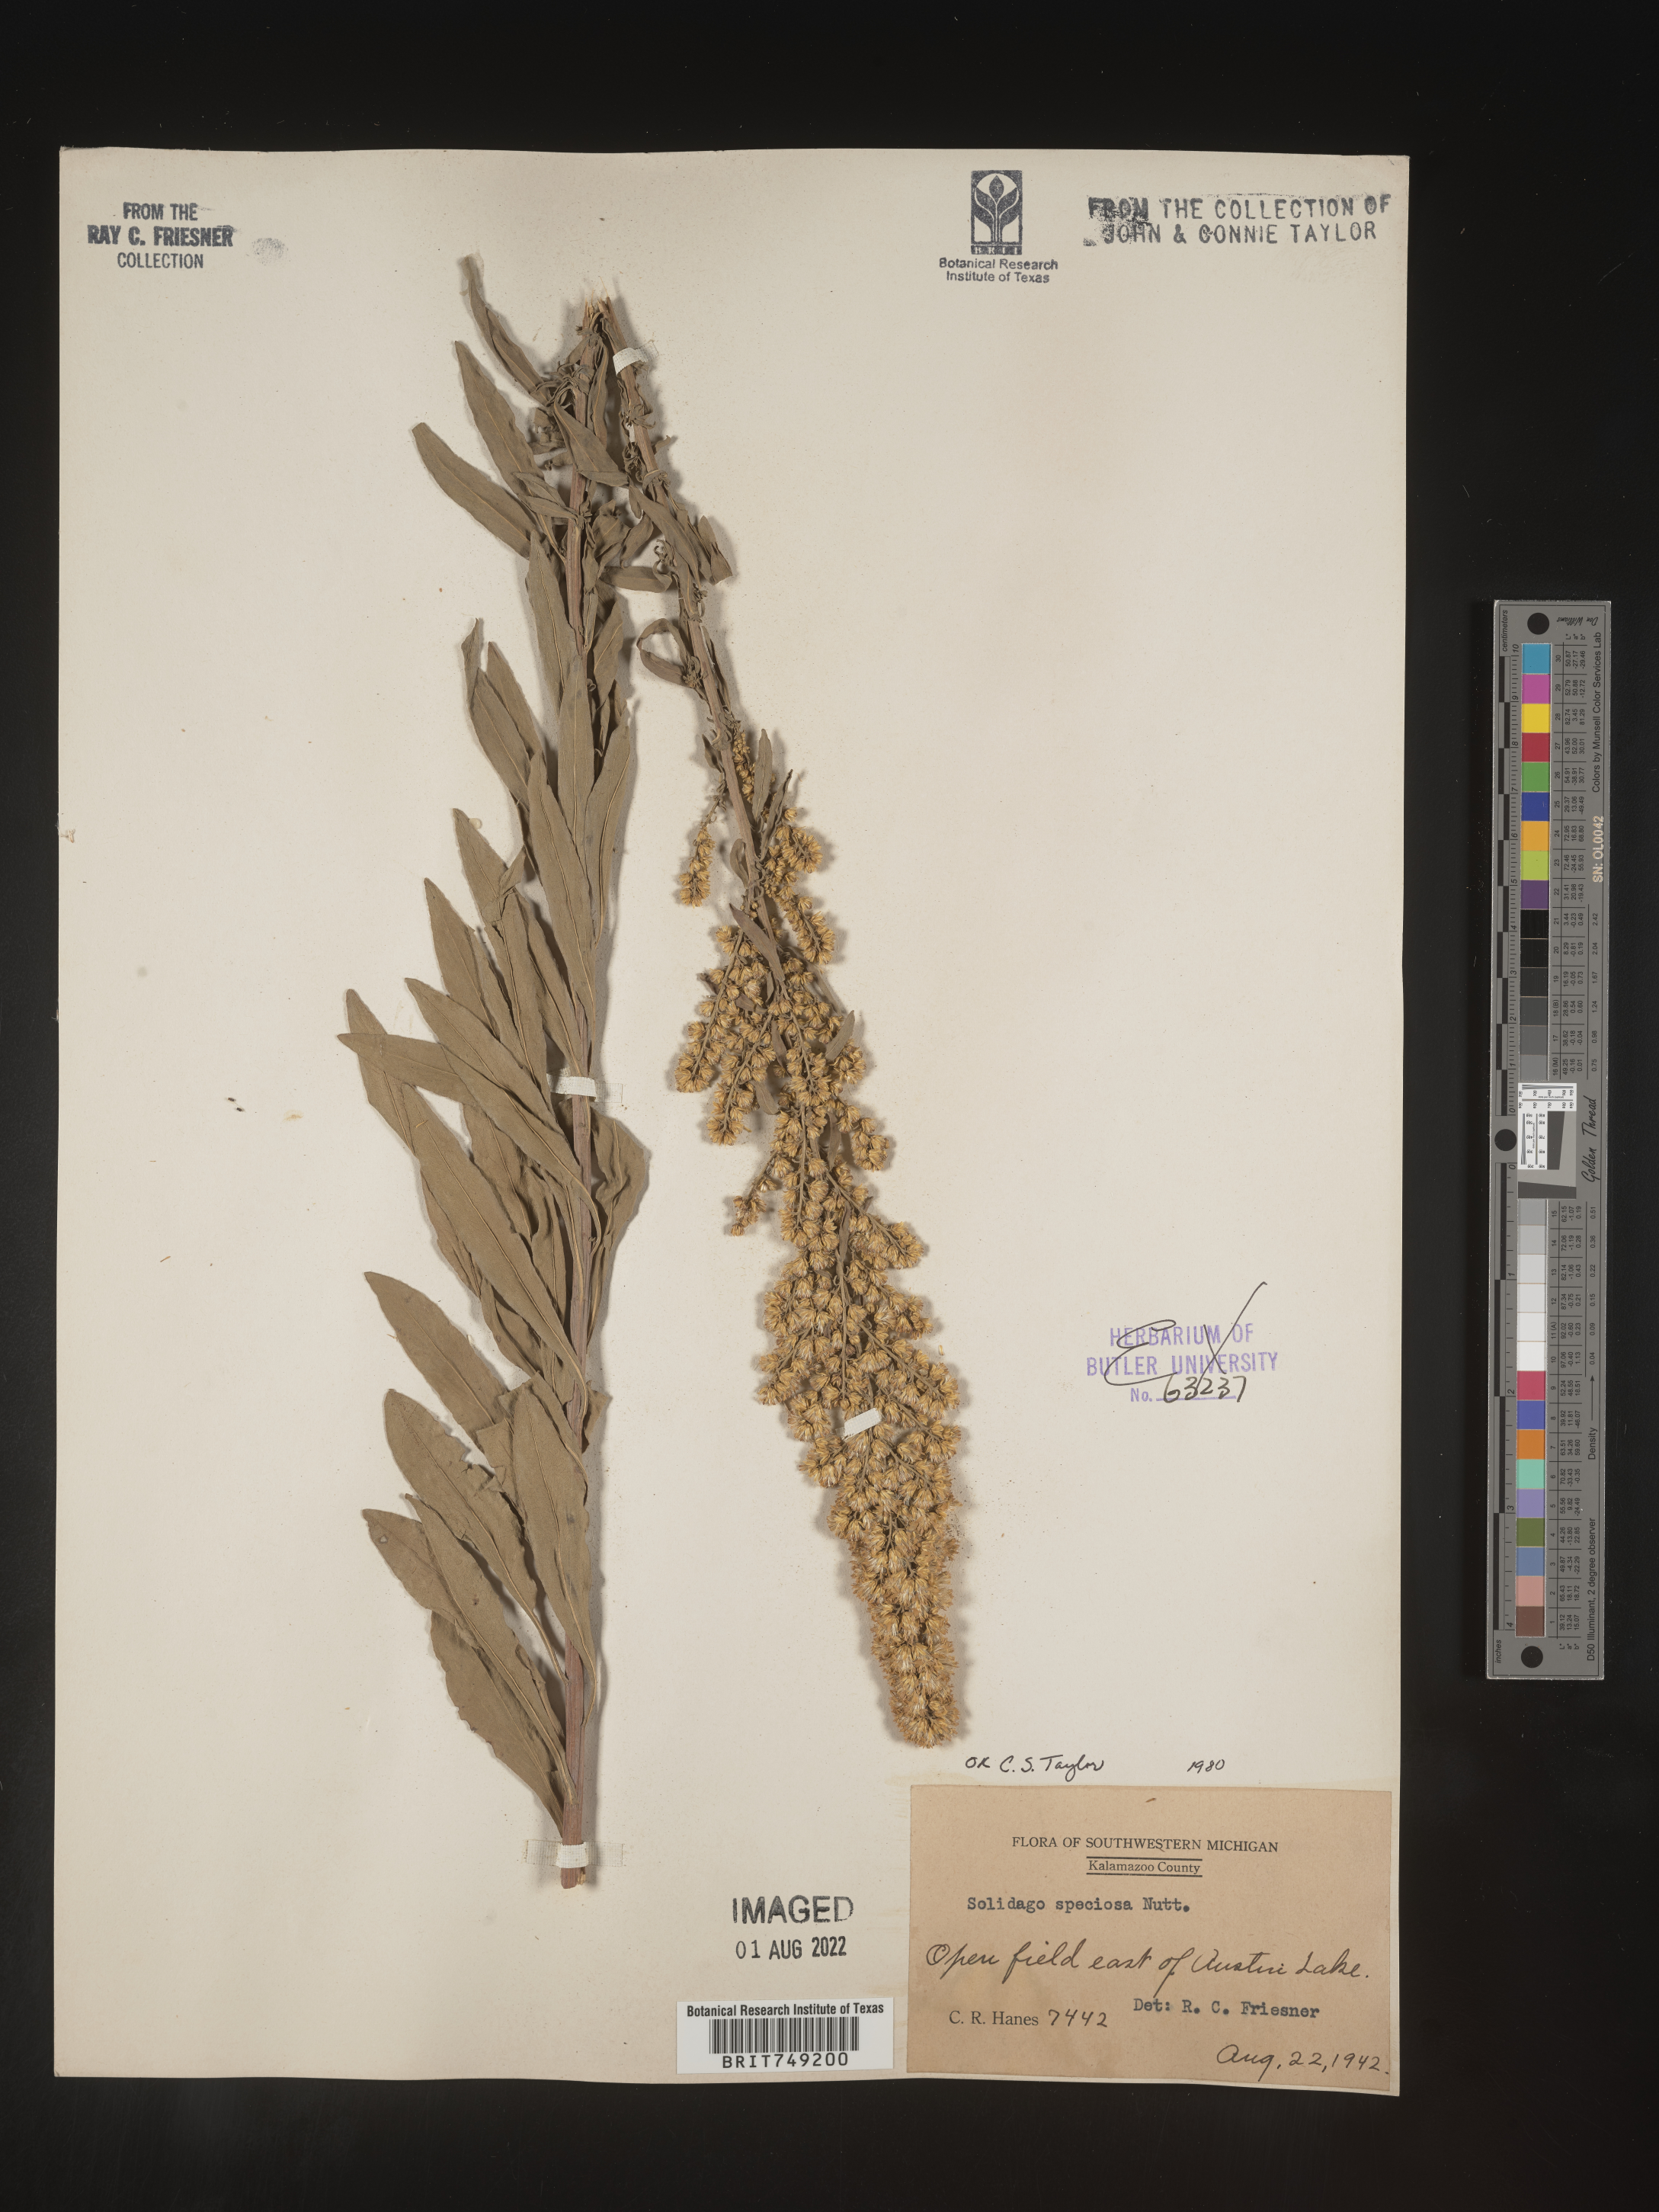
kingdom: Plantae
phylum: Tracheophyta
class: Magnoliopsida
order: Asterales
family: Asteraceae
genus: Solidago
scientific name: Solidago speciosa
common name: Showy goldenrod
